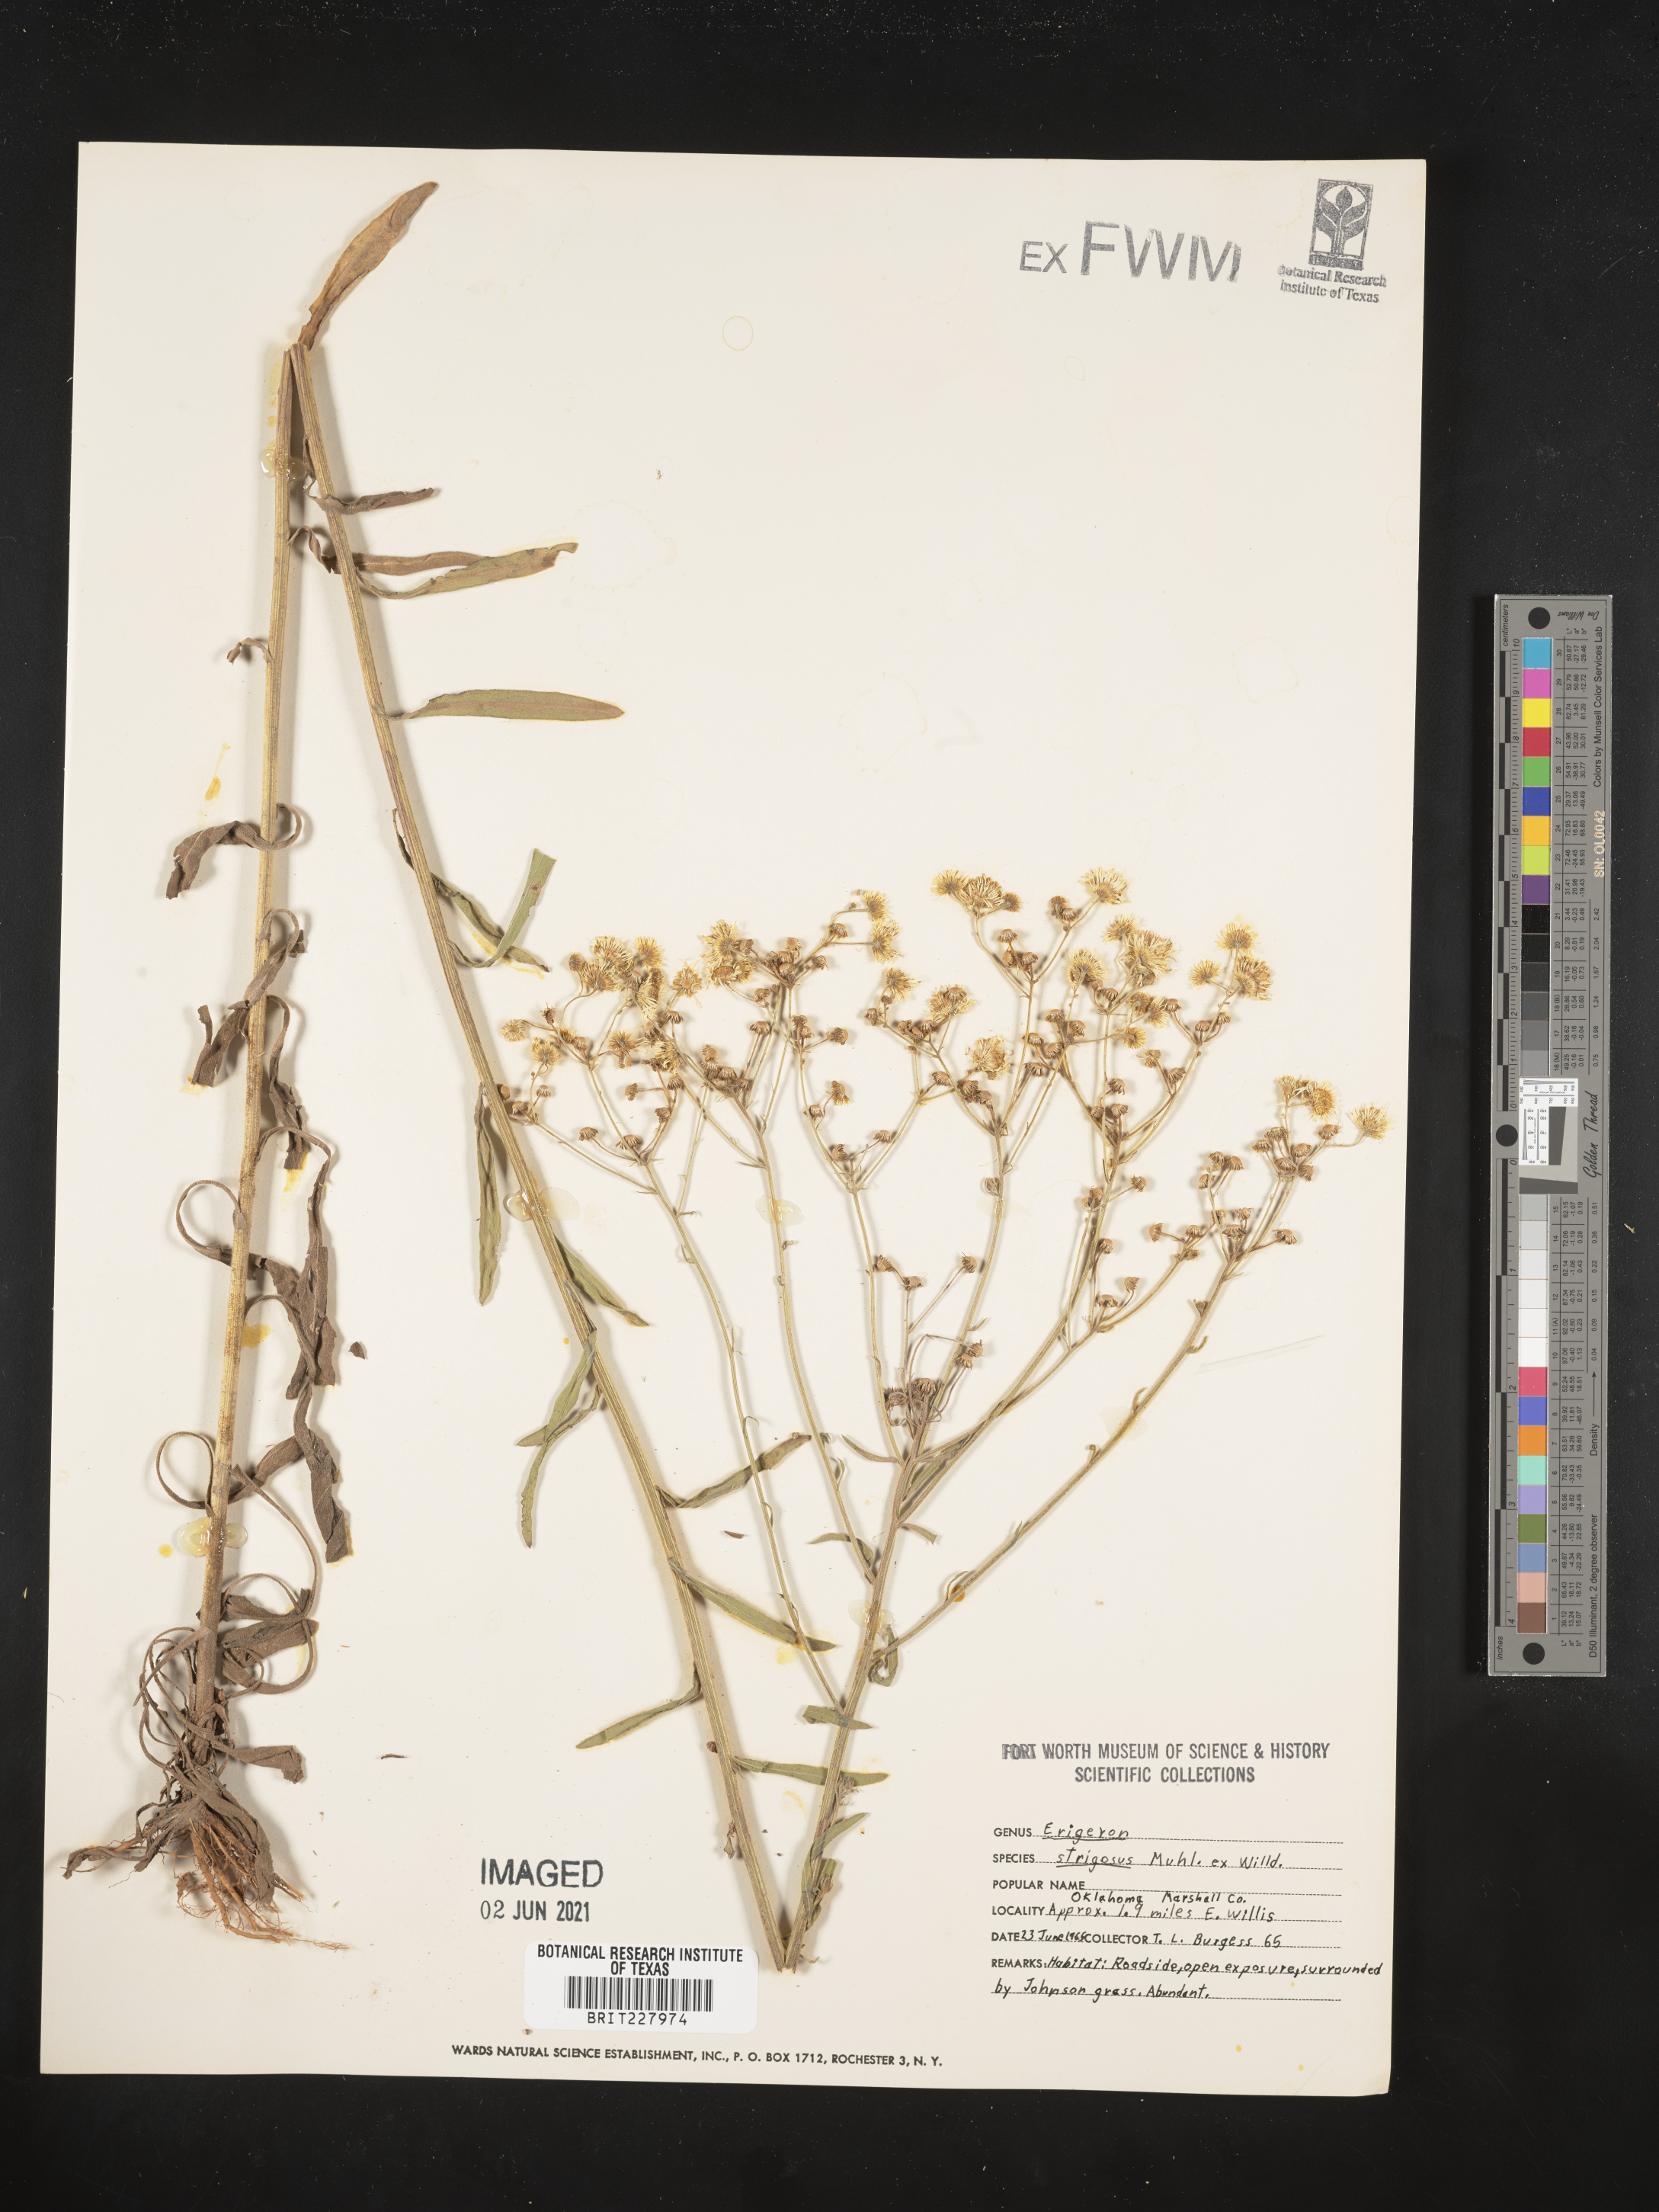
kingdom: Plantae
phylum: Tracheophyta
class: Magnoliopsida
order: Asterales
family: Asteraceae
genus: Erigeron
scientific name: Erigeron strigosus
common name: Common eastern fleabane
